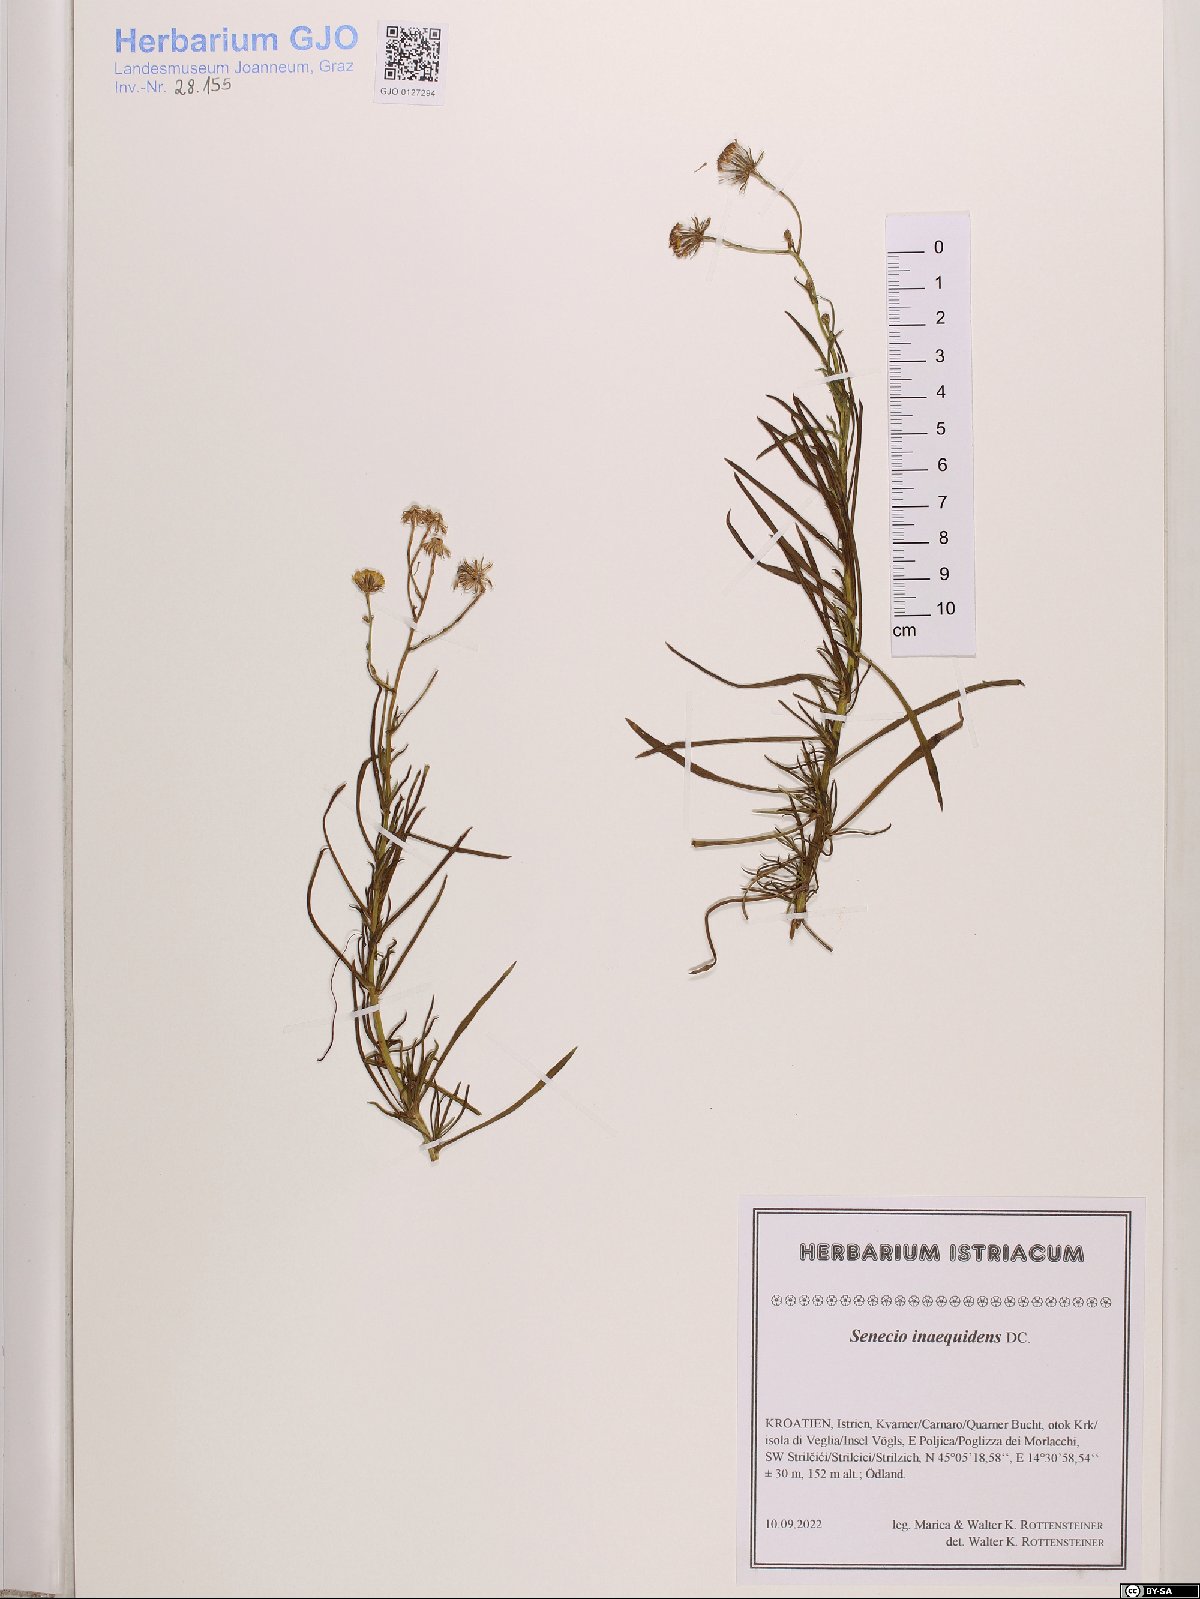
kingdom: Plantae
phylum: Tracheophyta
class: Magnoliopsida
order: Asterales
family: Asteraceae
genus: Senecio
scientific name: Senecio inaequidens
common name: Narrow-leaved ragwort
